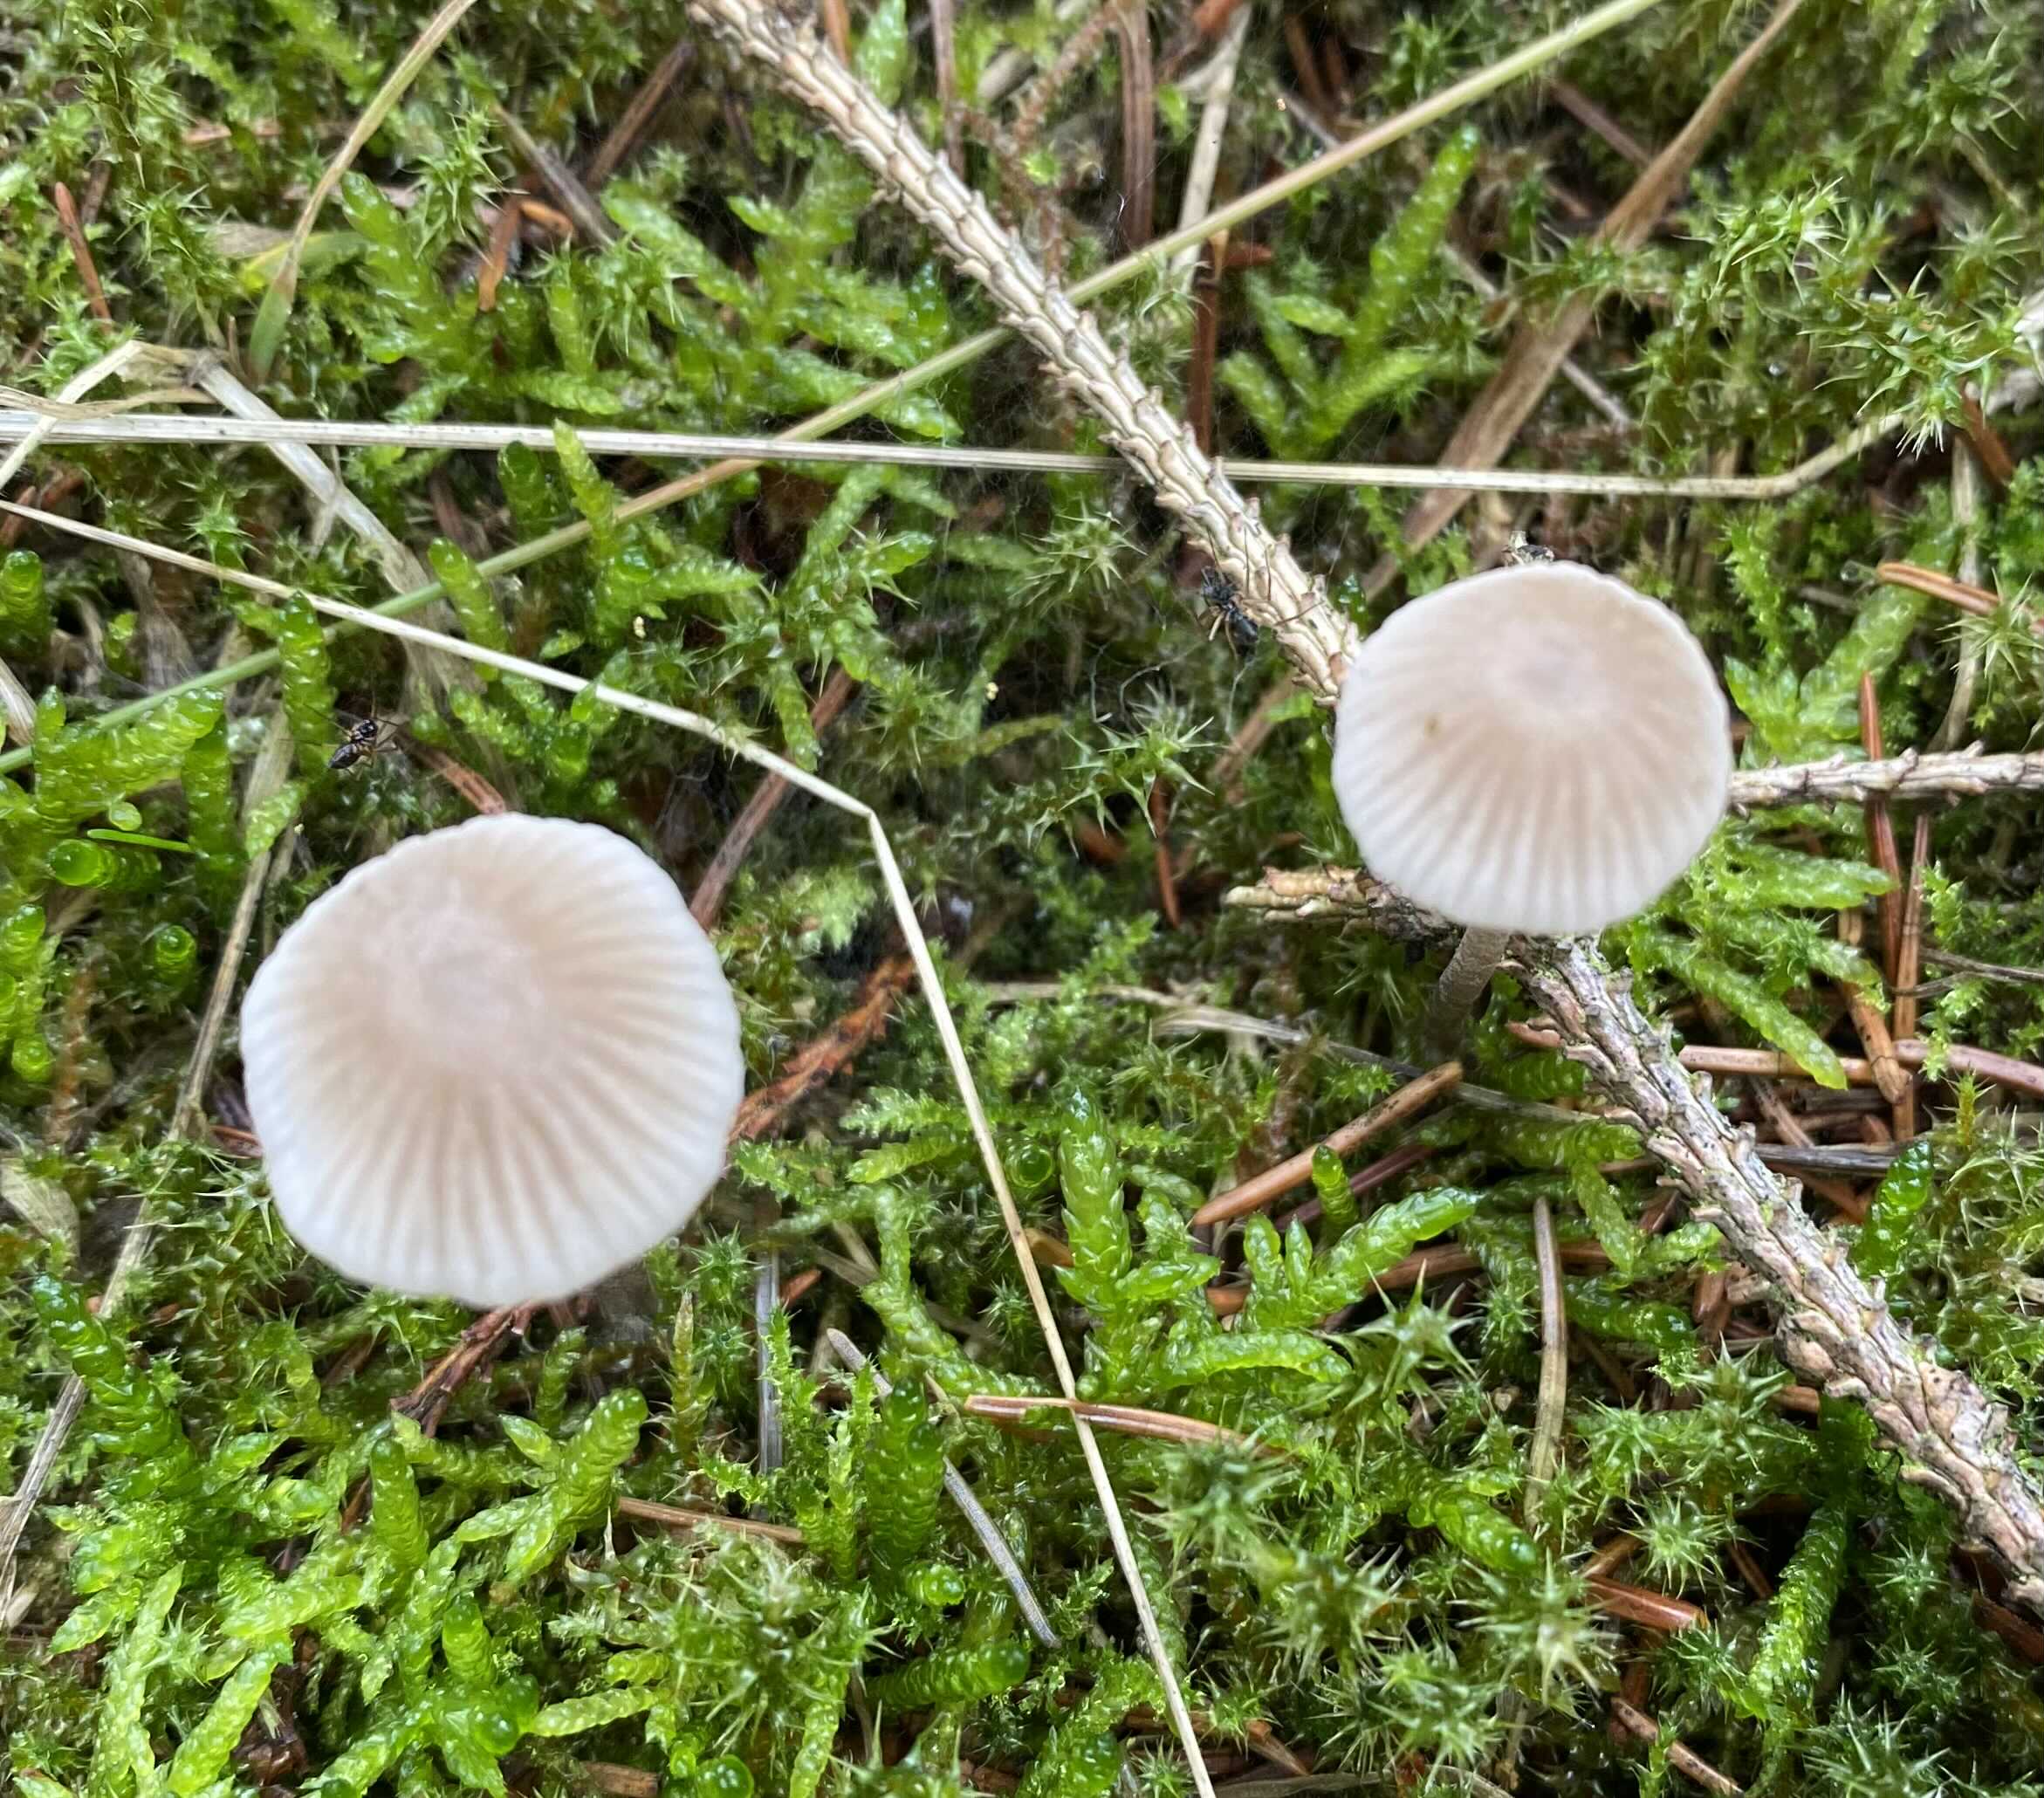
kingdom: Fungi
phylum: Basidiomycota
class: Agaricomycetes
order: Agaricales
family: Mycenaceae
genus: Mycena
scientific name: Mycena leptocephala
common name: klor-huesvamp
